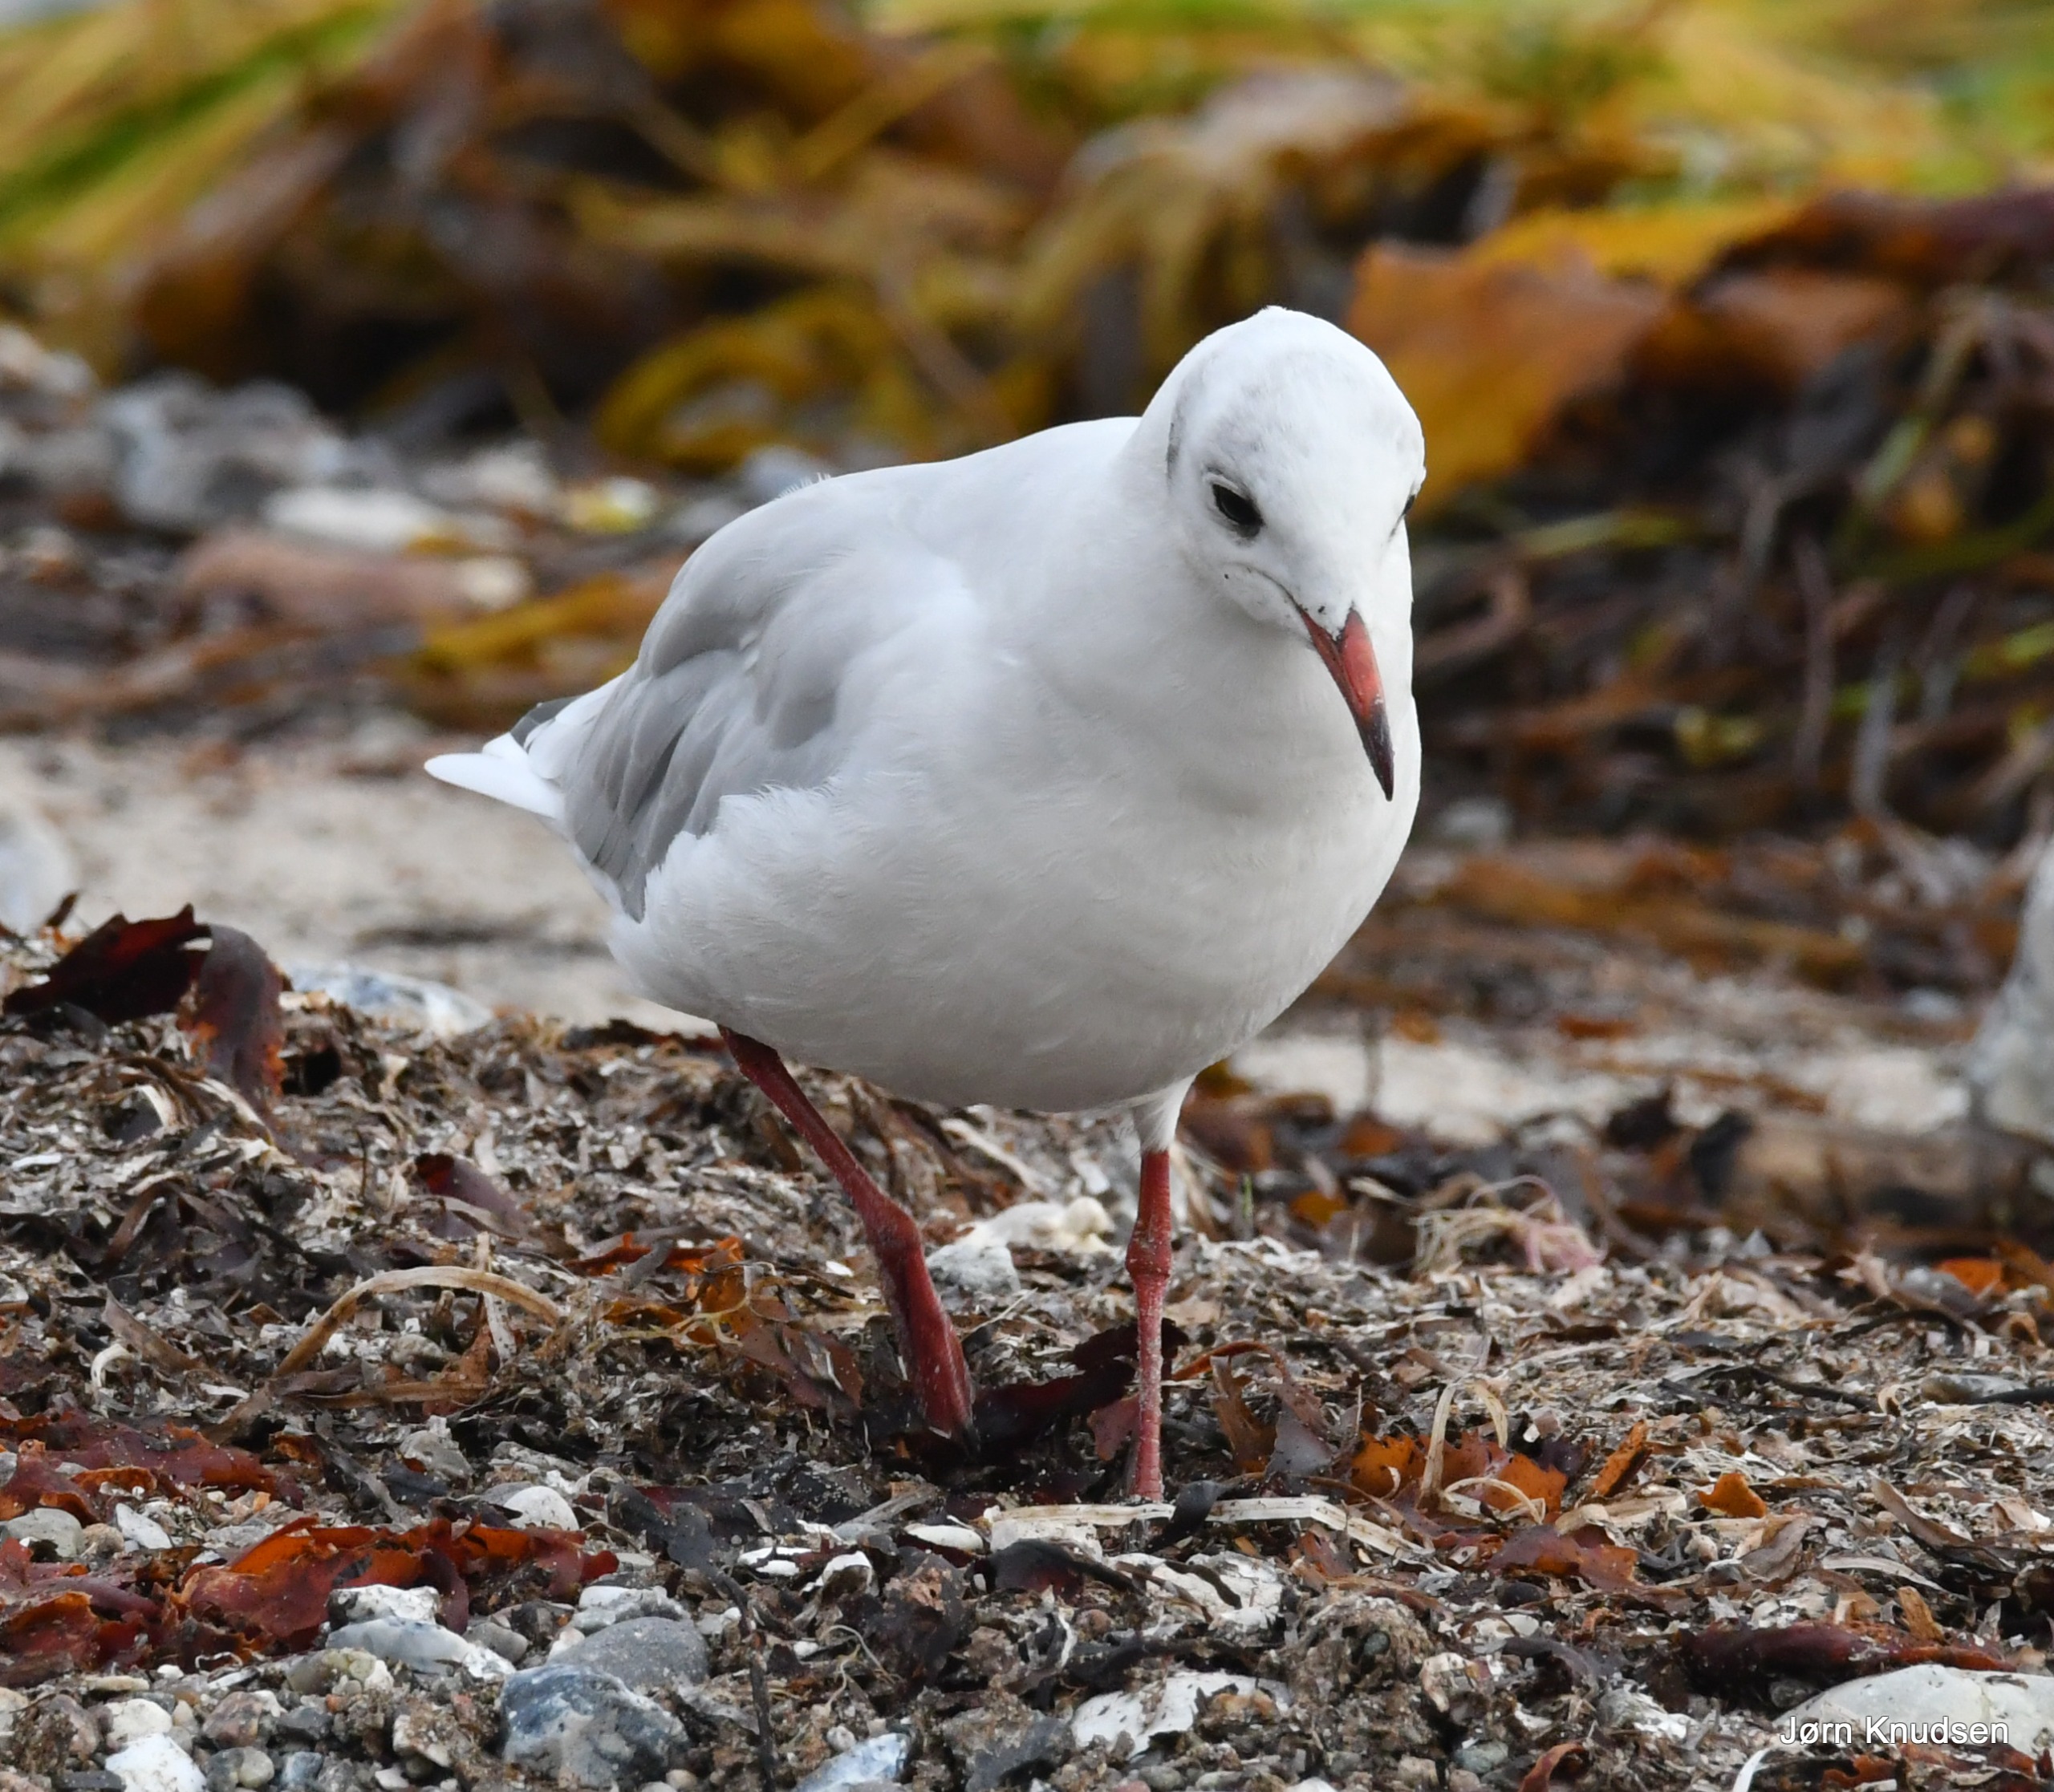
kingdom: Animalia
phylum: Chordata
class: Aves
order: Charadriiformes
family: Laridae
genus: Chroicocephalus
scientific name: Chroicocephalus ridibundus
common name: Hættemåge
